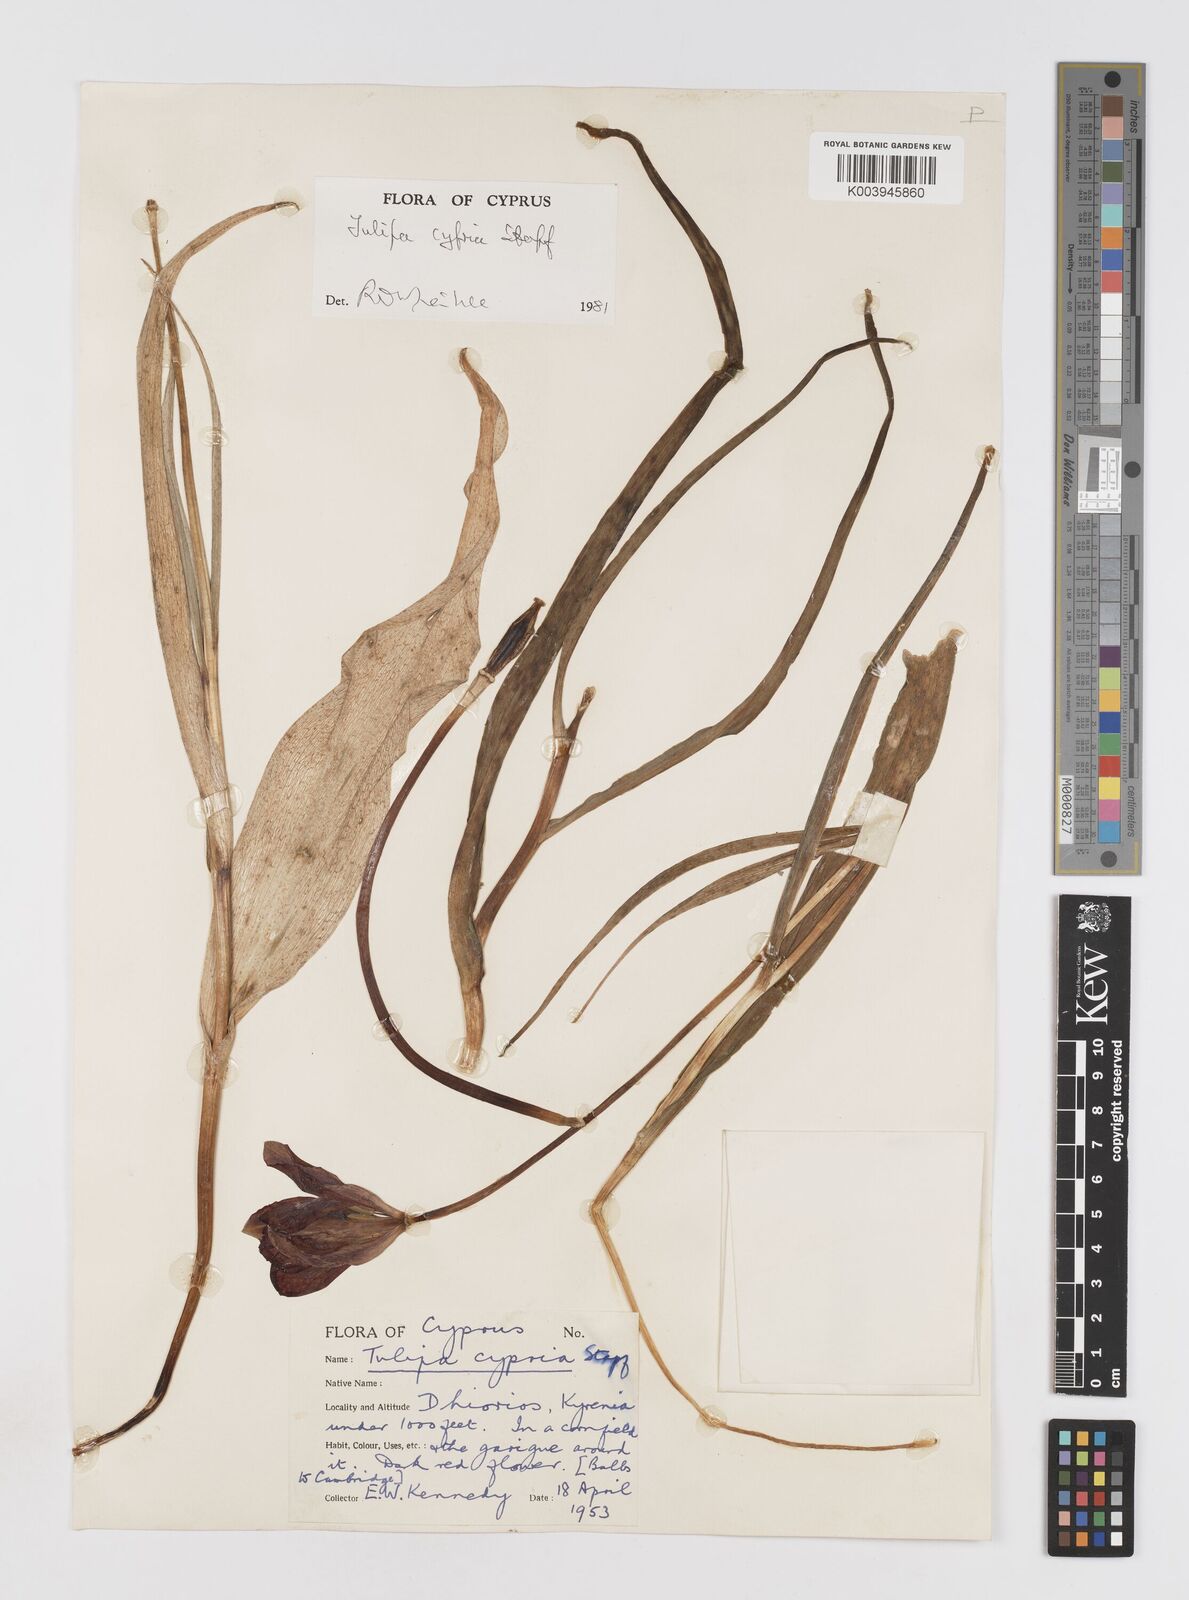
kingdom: Plantae
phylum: Tracheophyta
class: Liliopsida
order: Liliales
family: Liliaceae
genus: Tulipa
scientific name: Tulipa agenensis
